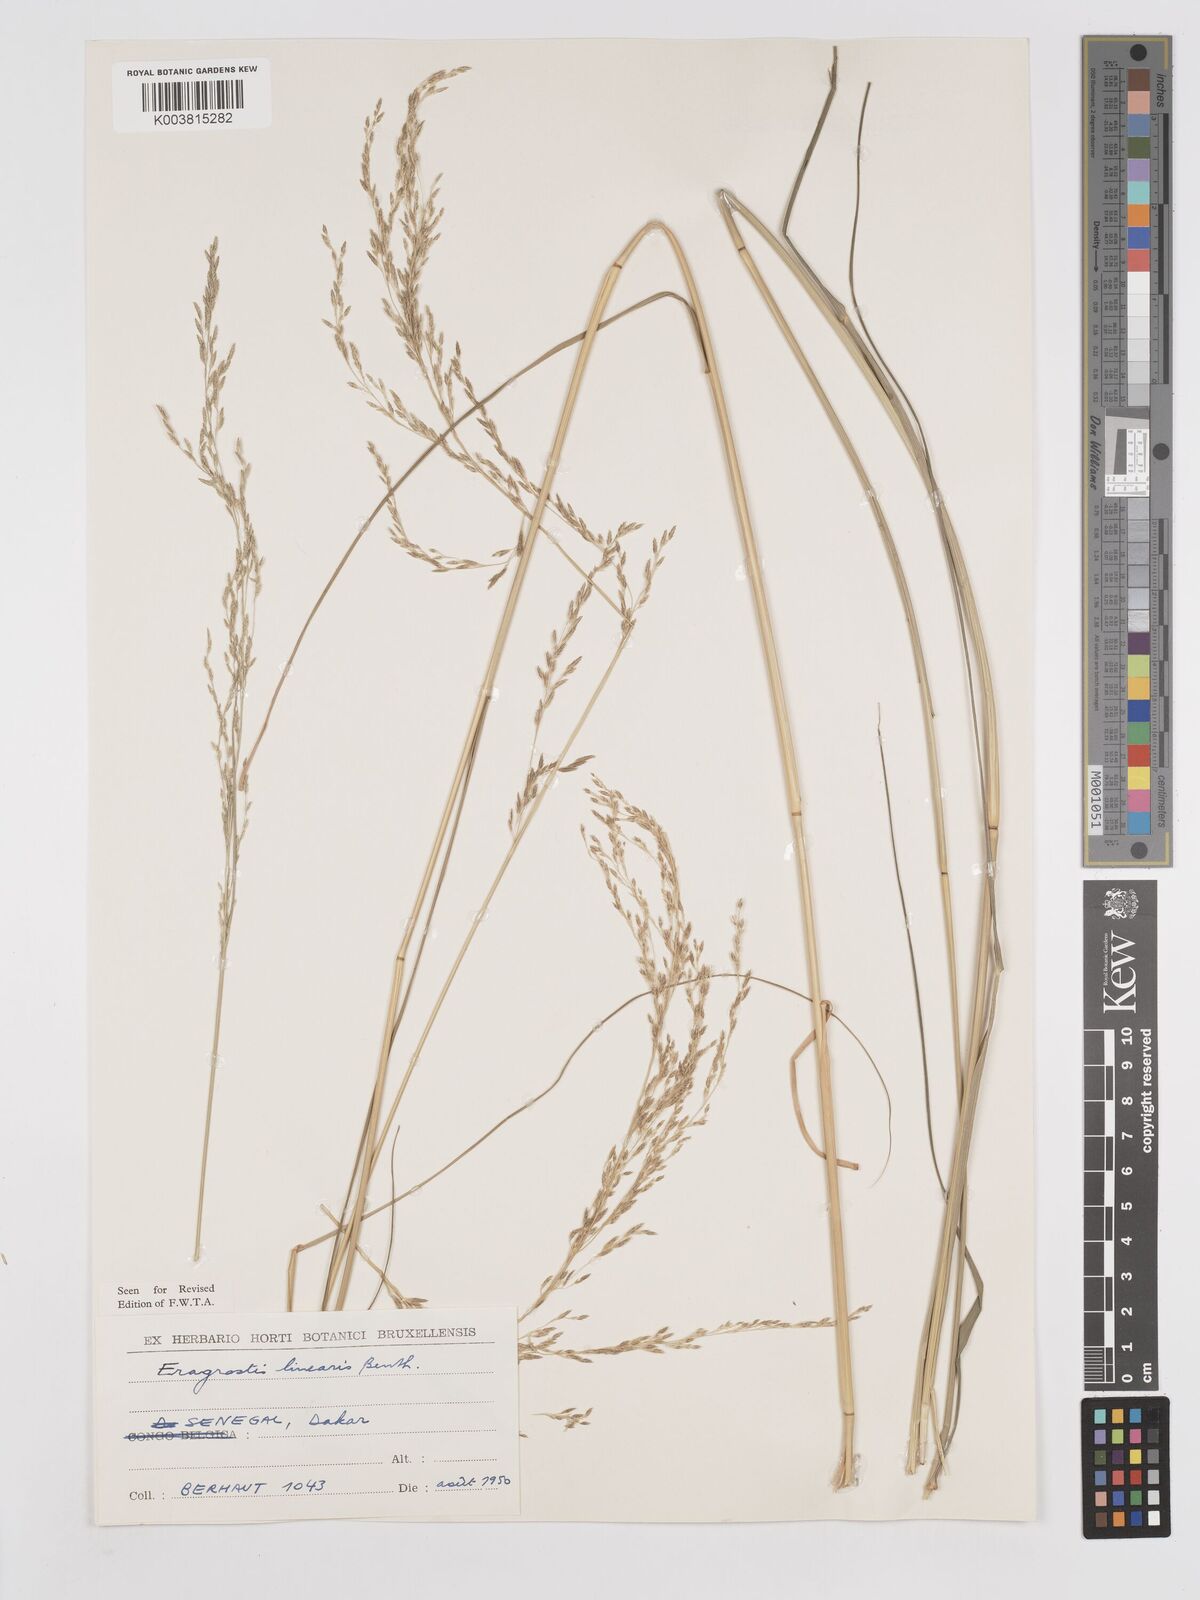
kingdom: Plantae
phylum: Tracheophyta
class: Liliopsida
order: Poales
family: Poaceae
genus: Eragrostis
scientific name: Eragrostis prolifera
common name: Dominican lovegrass
